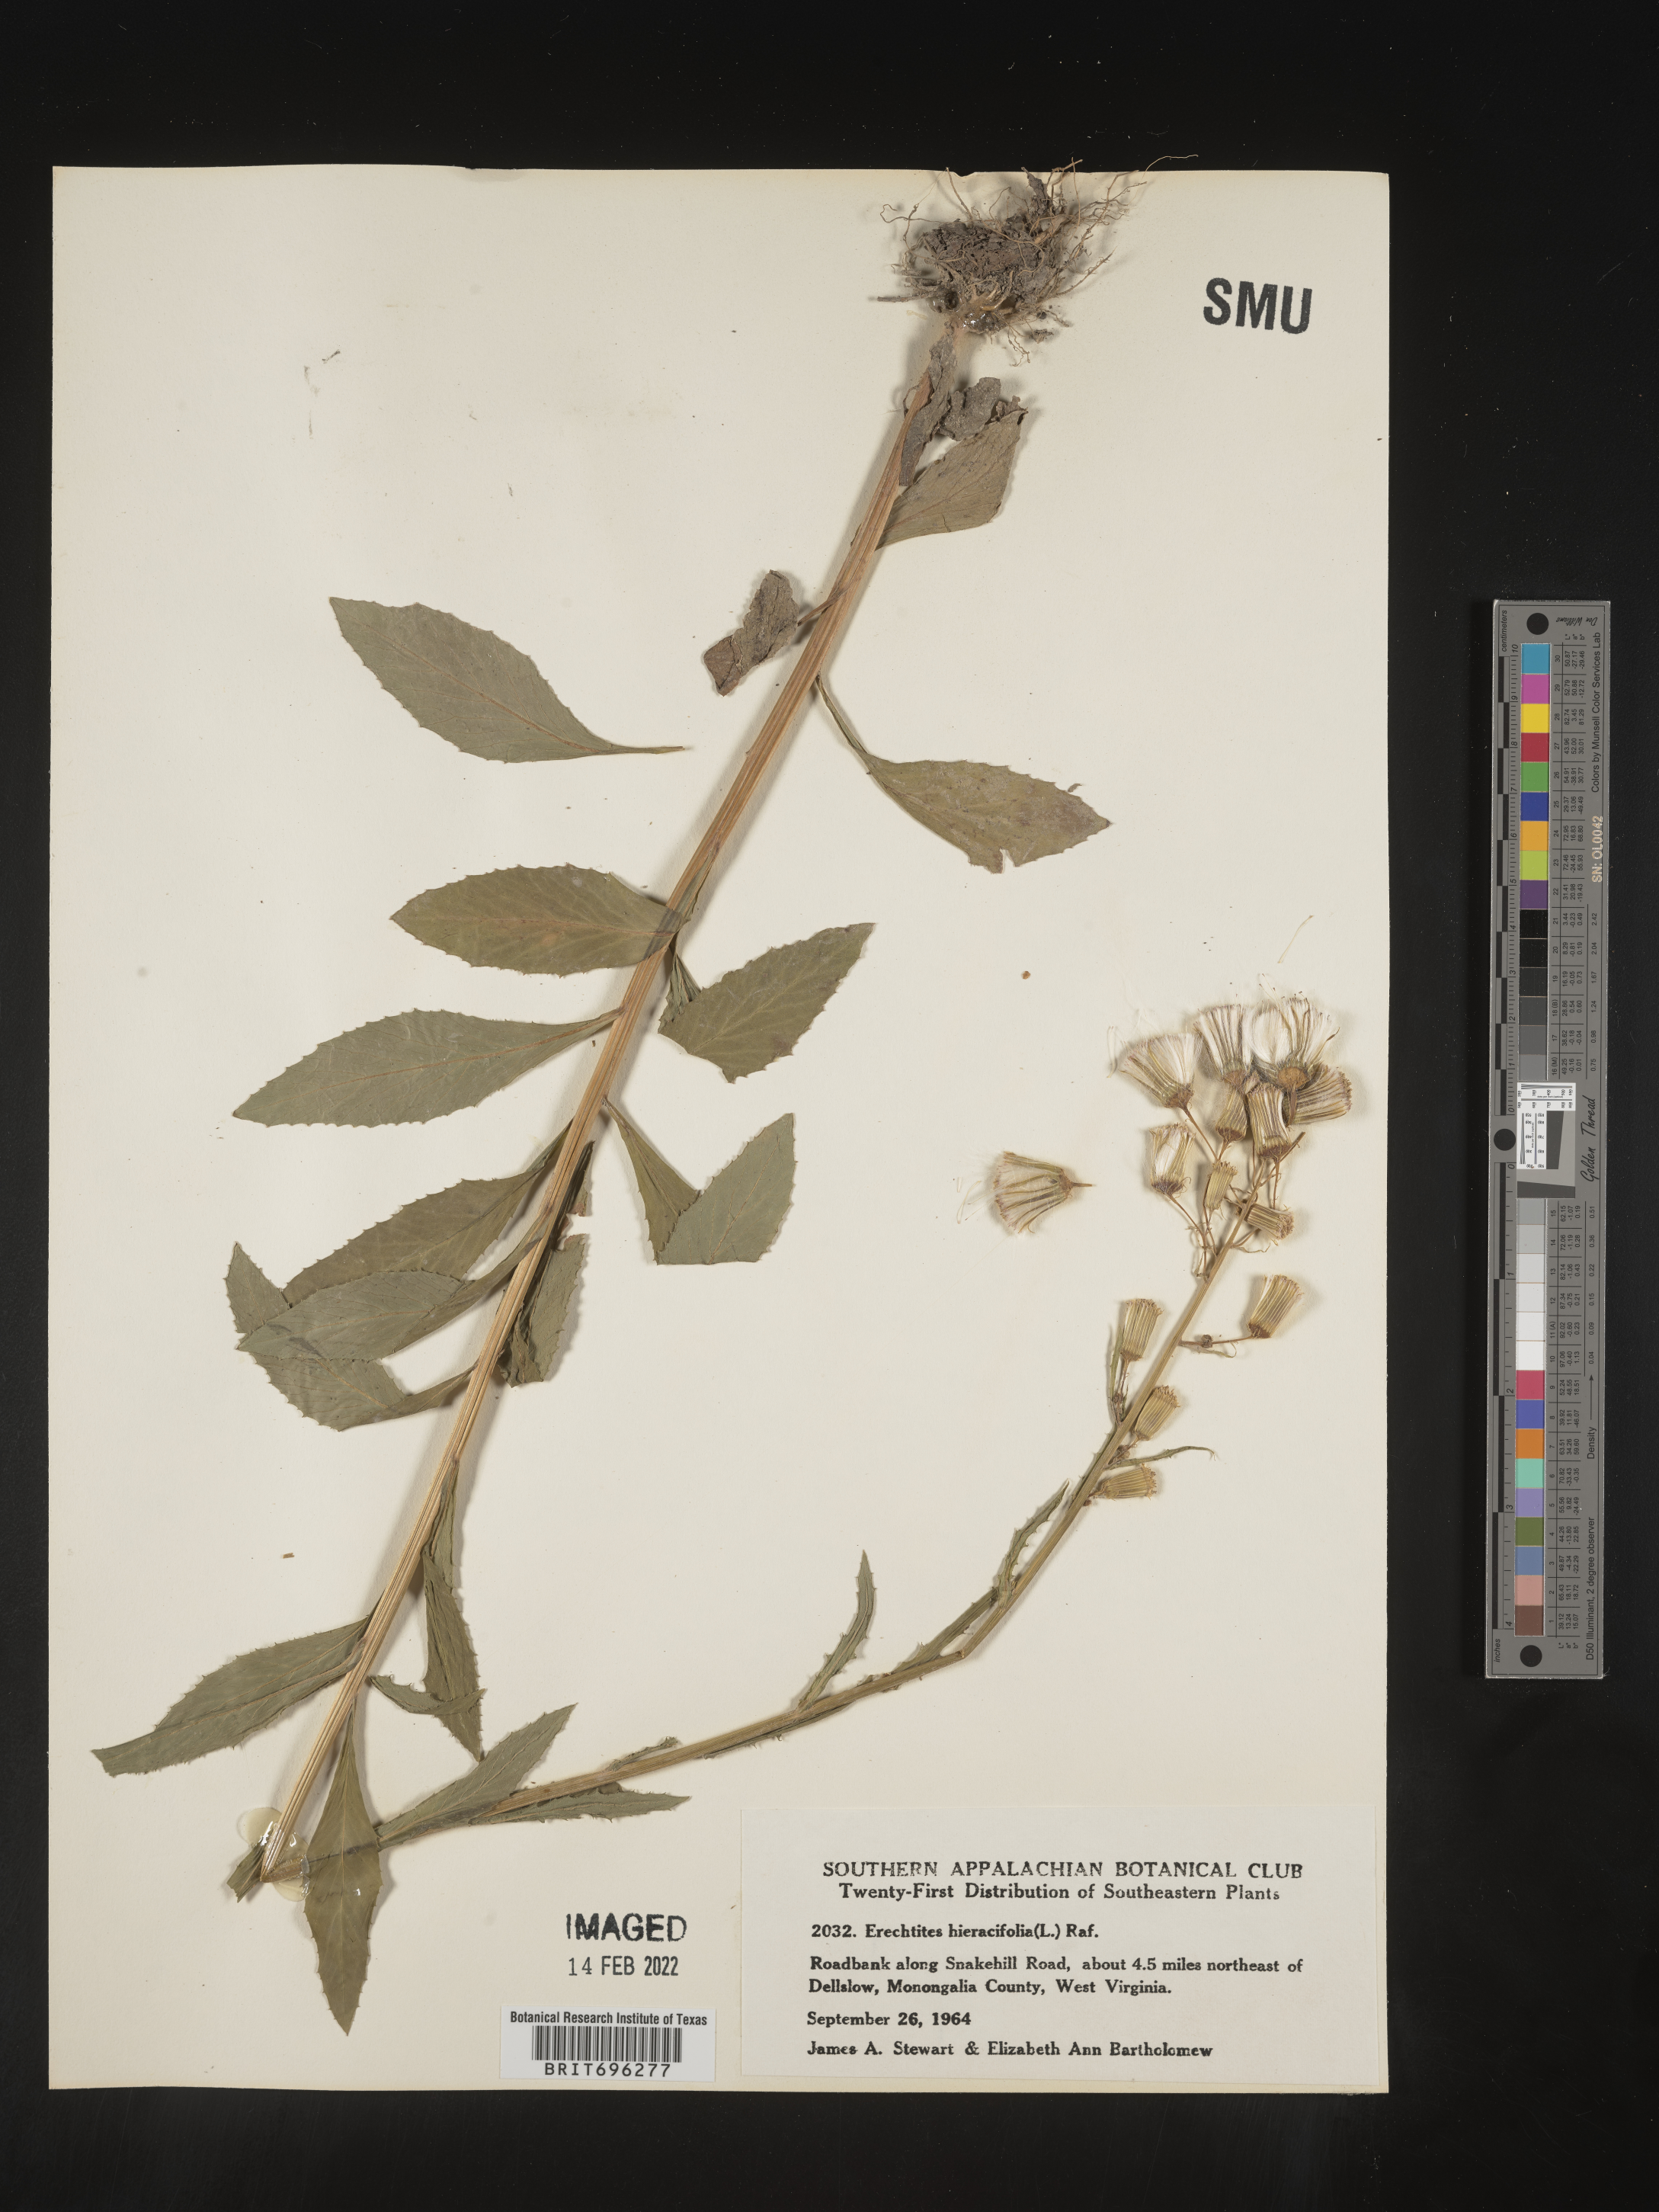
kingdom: Plantae
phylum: Tracheophyta
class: Magnoliopsida
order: Asterales
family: Asteraceae
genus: Erechtites
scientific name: Erechtites hieraciifolius
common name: American burnweed
